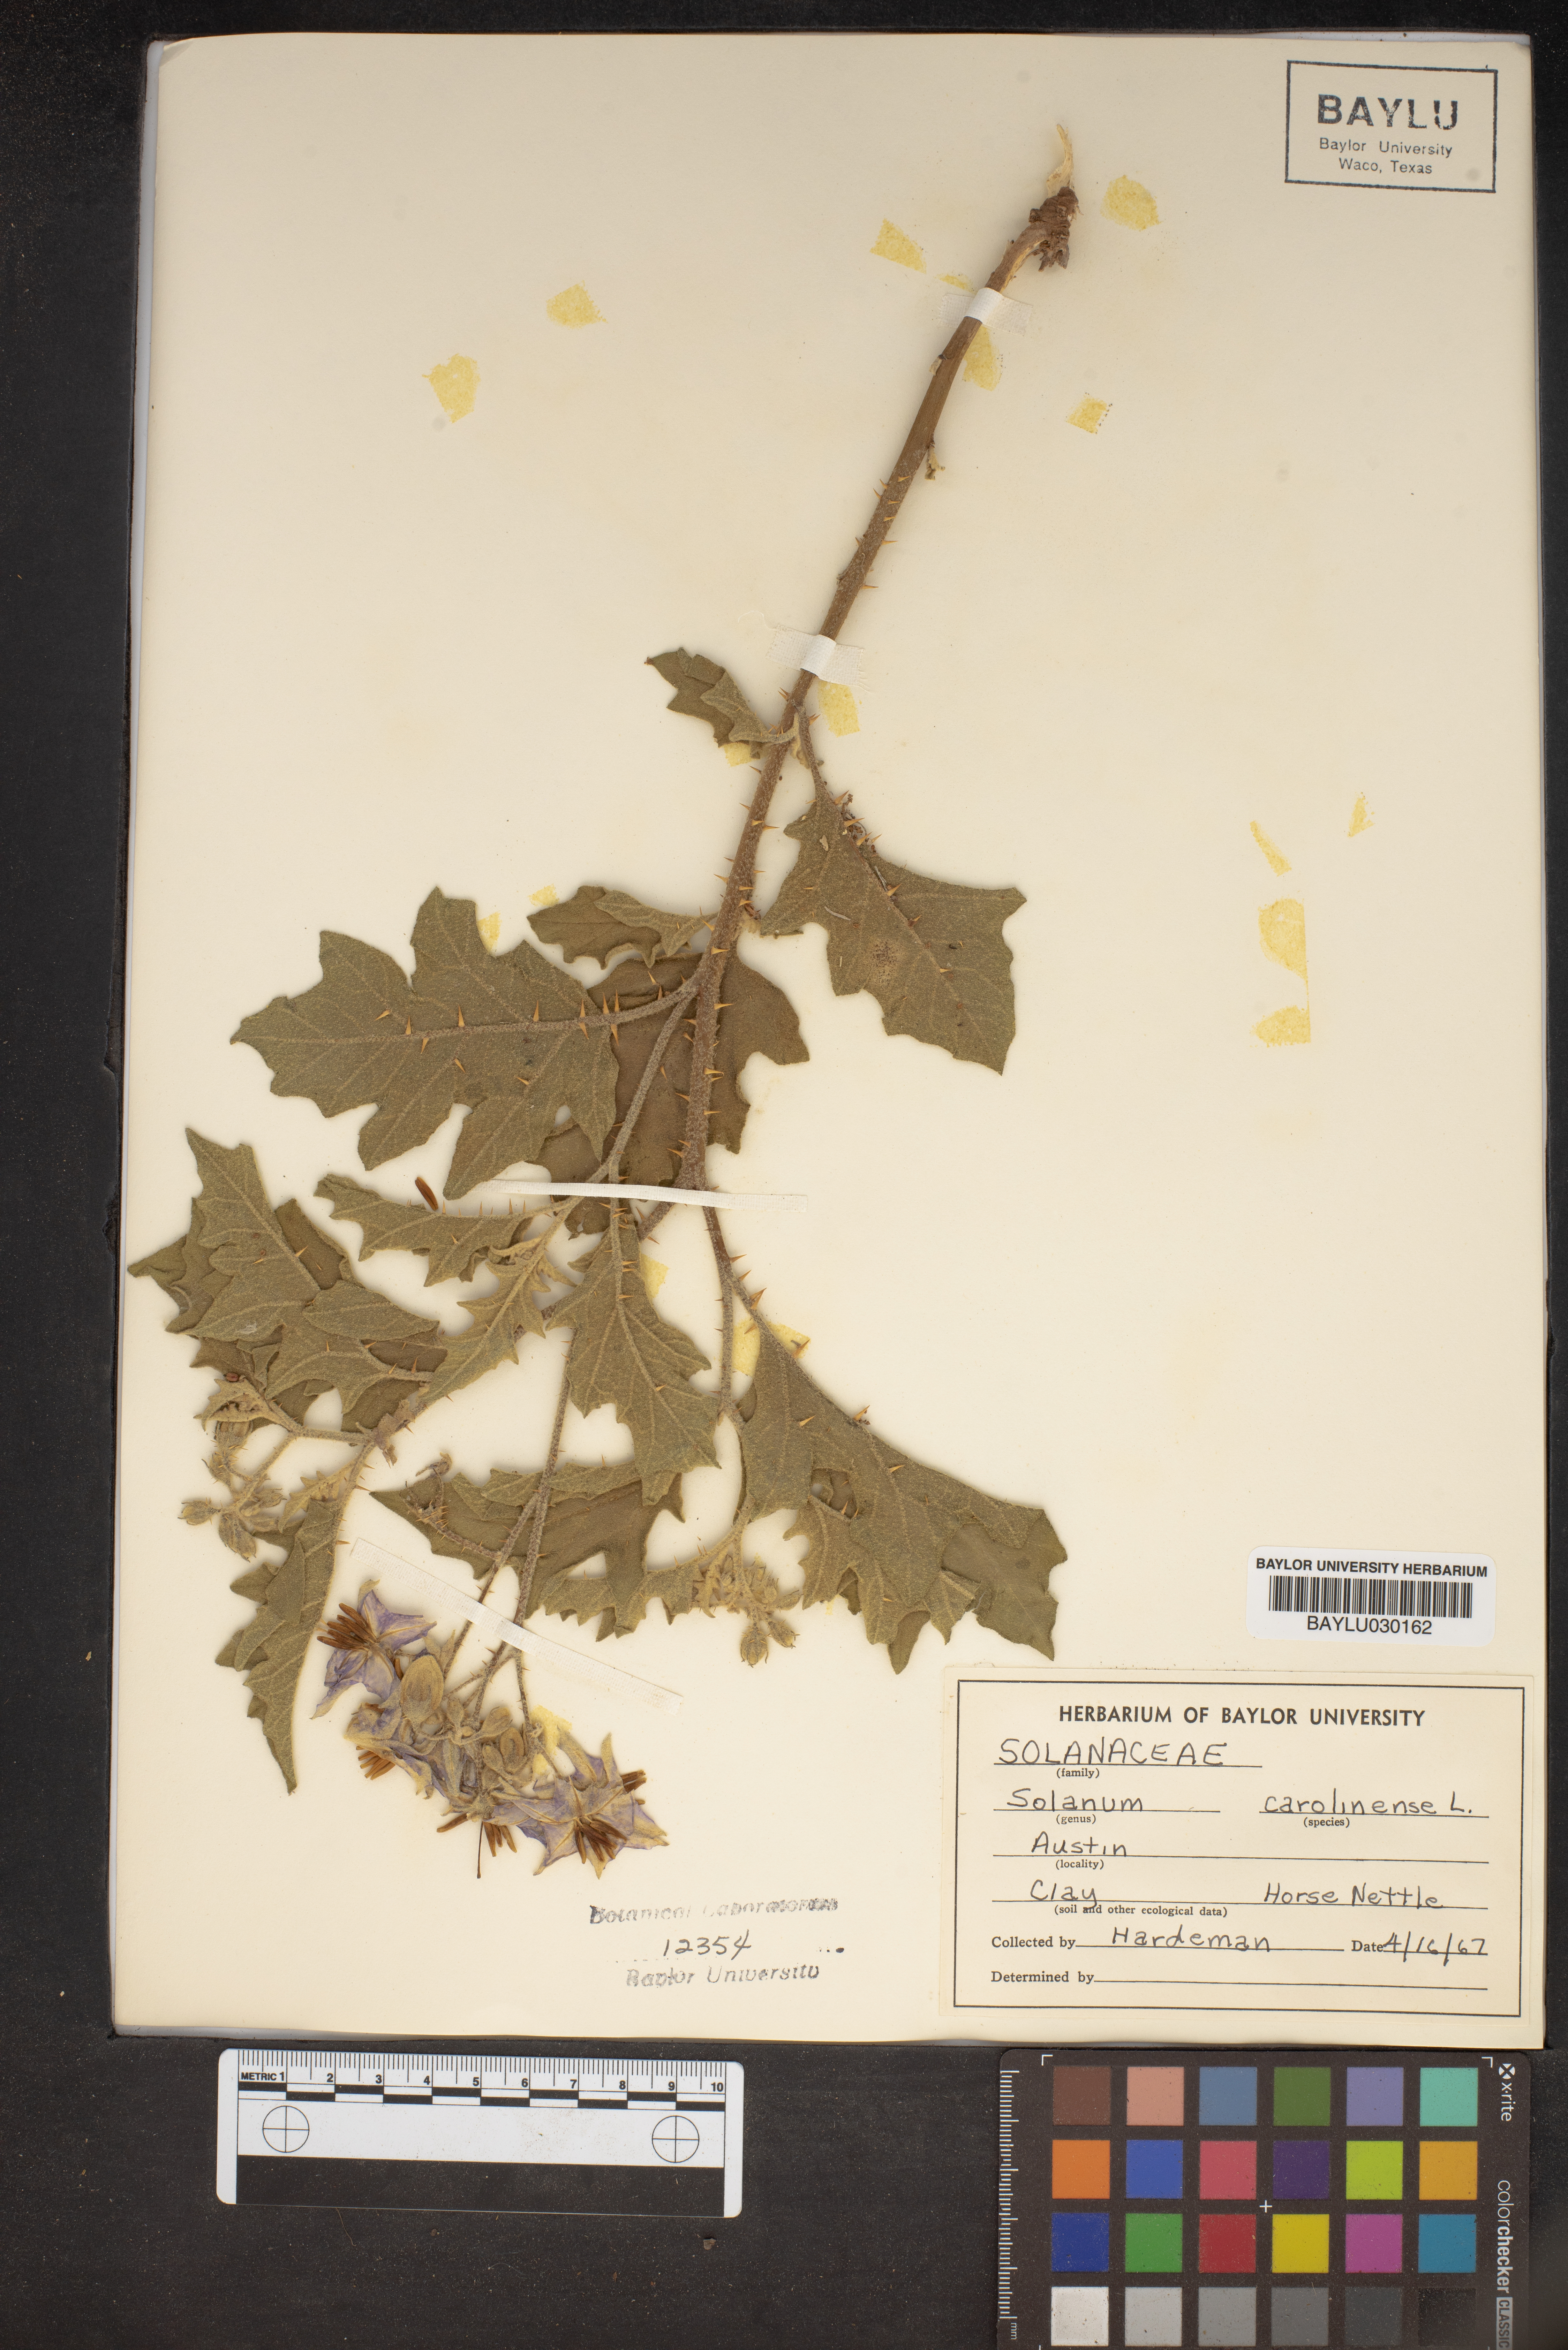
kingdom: Plantae
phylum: Tracheophyta
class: Magnoliopsida
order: Solanales
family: Solanaceae
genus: Solanum
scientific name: Solanum carolinense
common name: Horse-nettle
